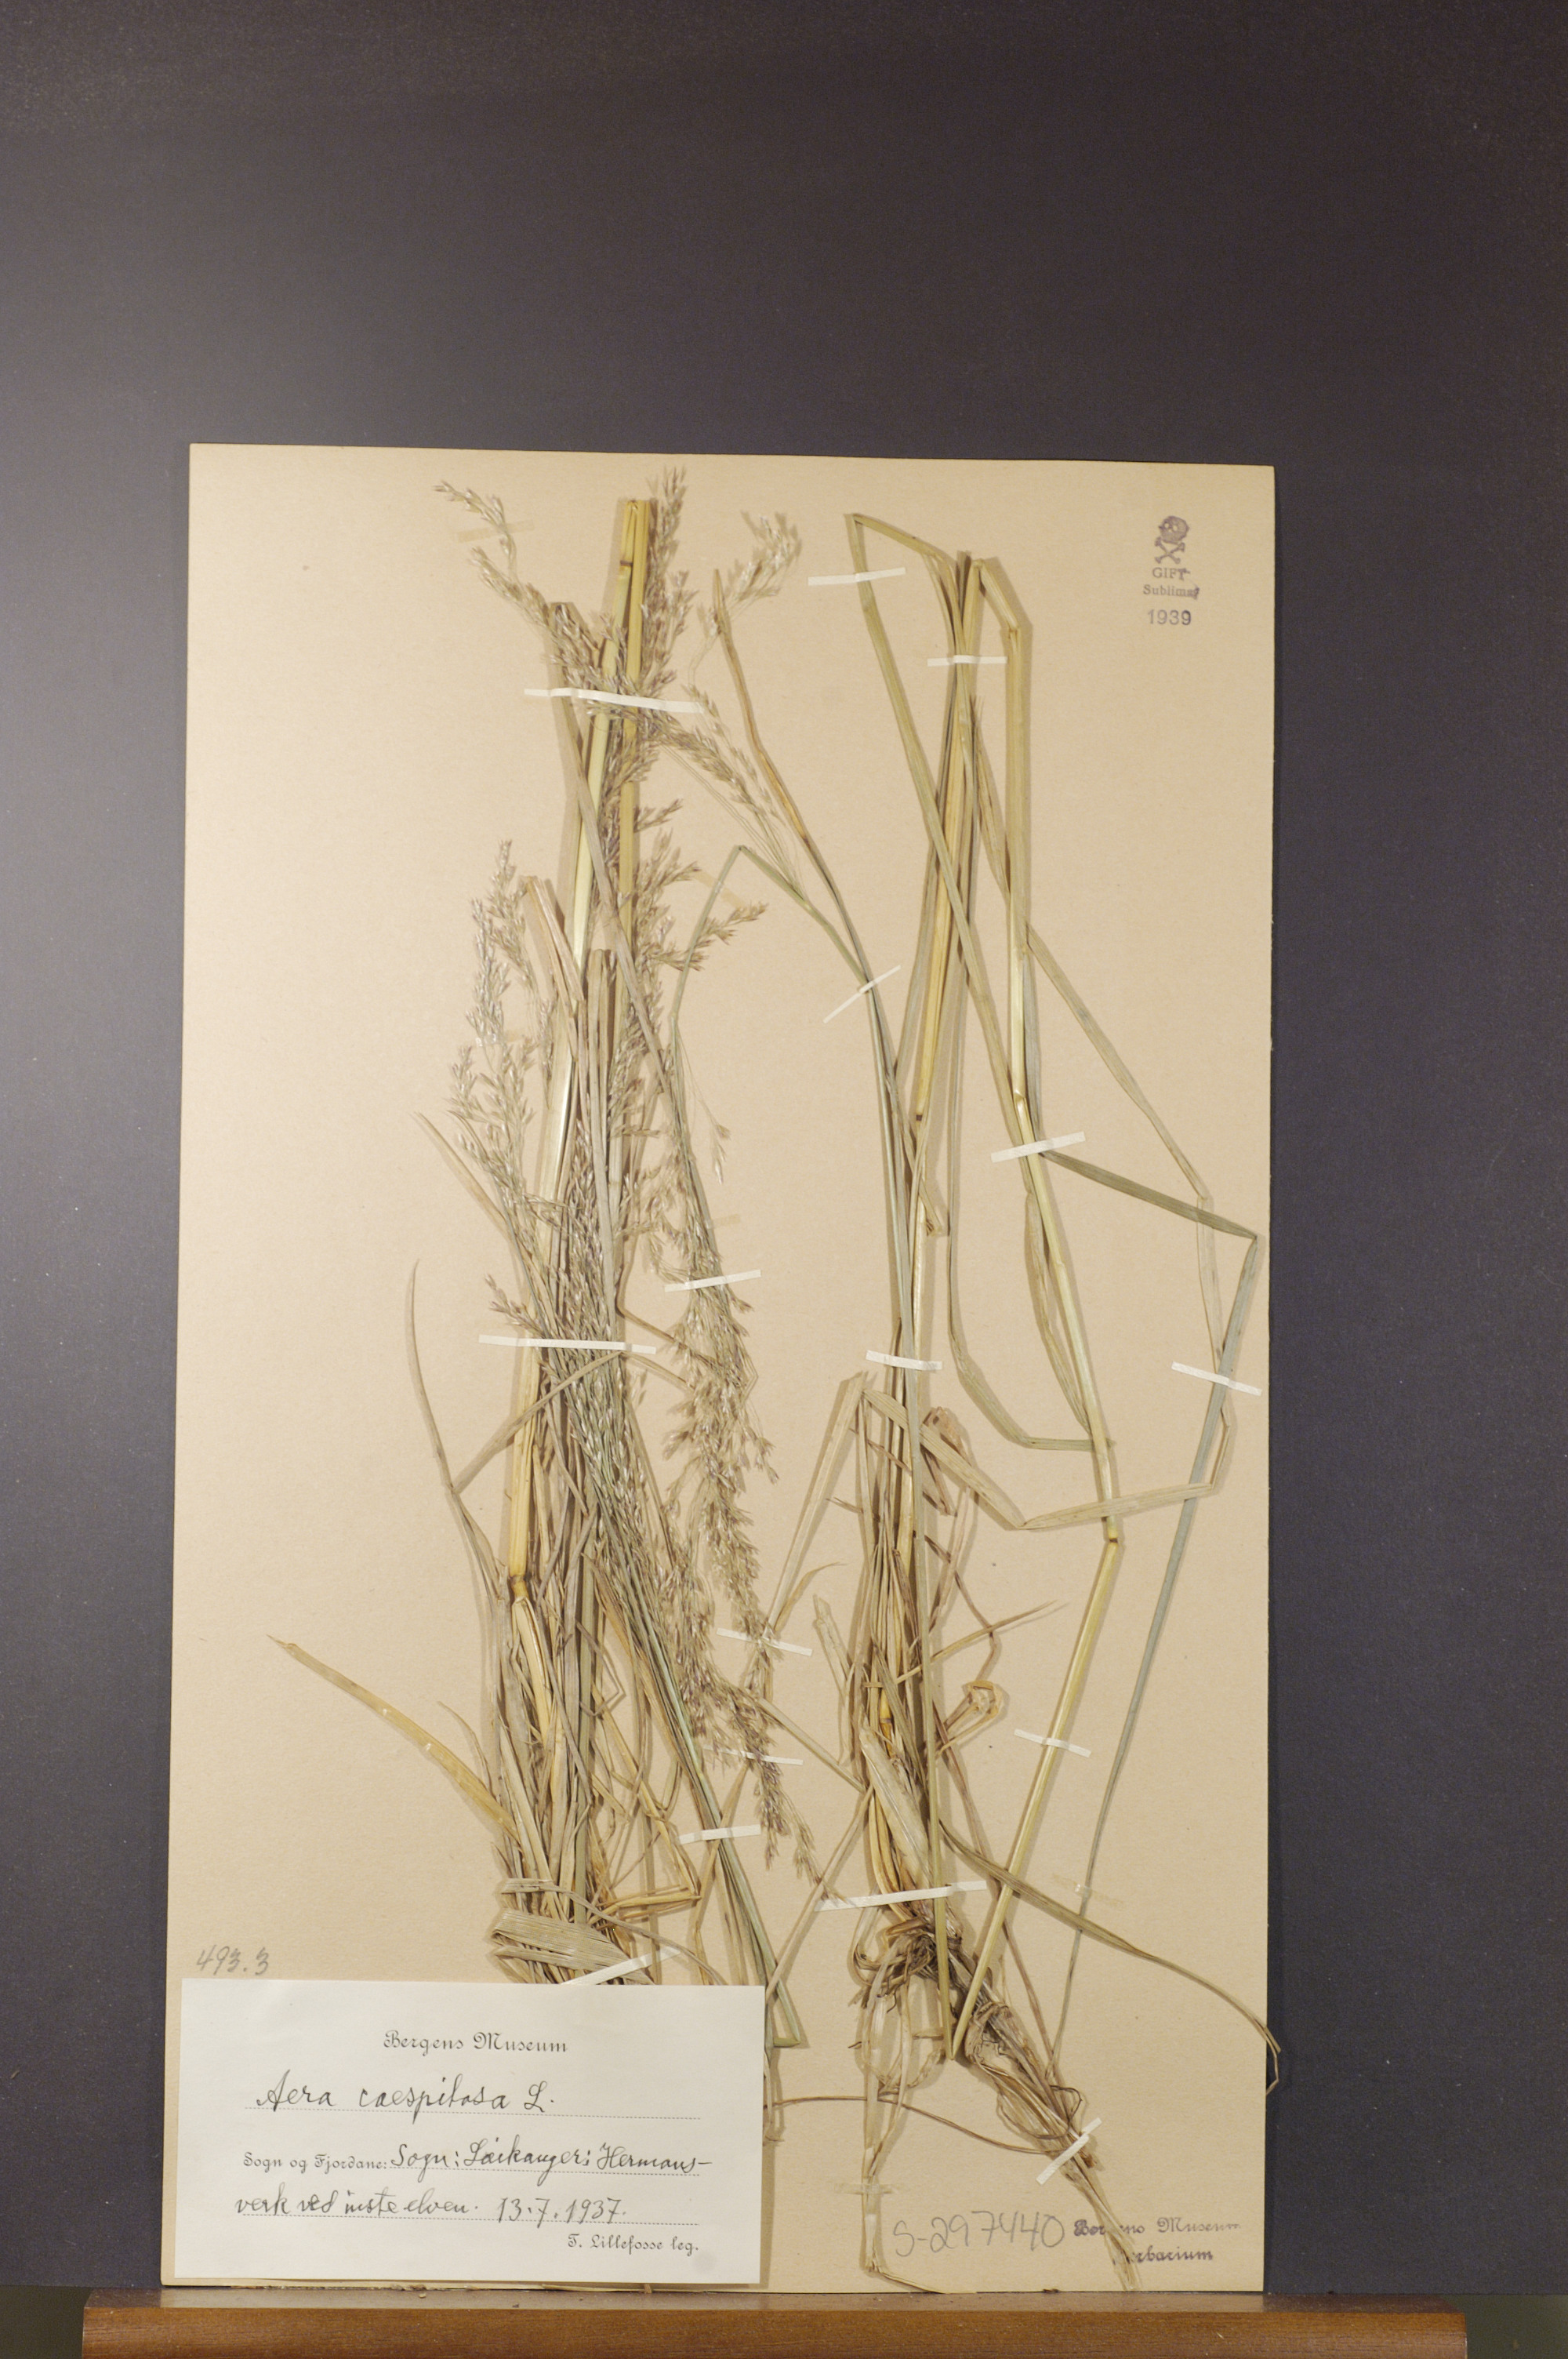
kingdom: Plantae
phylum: Tracheophyta
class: Liliopsida
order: Poales
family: Poaceae
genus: Deschampsia
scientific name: Deschampsia cespitosa
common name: Tufted hair-grass
